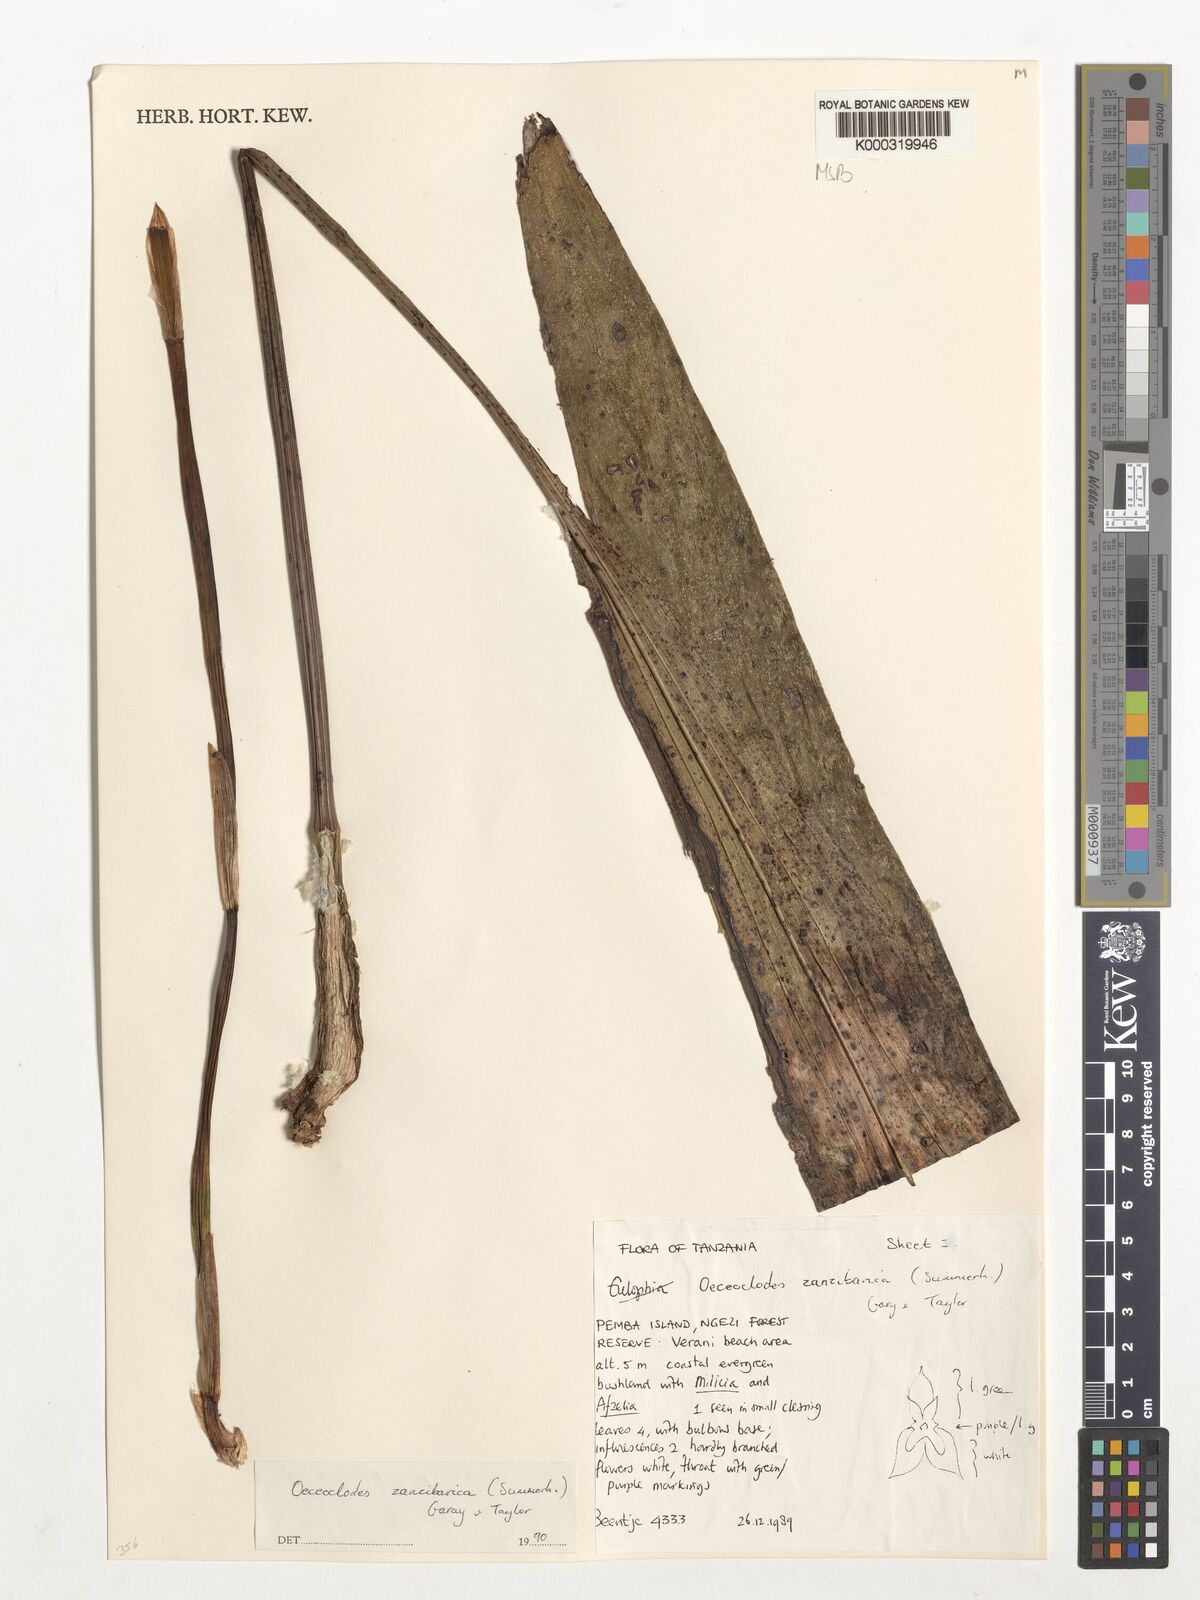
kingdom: Plantae
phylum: Tracheophyta
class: Liliopsida
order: Asparagales
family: Orchidaceae
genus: Eulophia
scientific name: Eulophia zanzibarica
